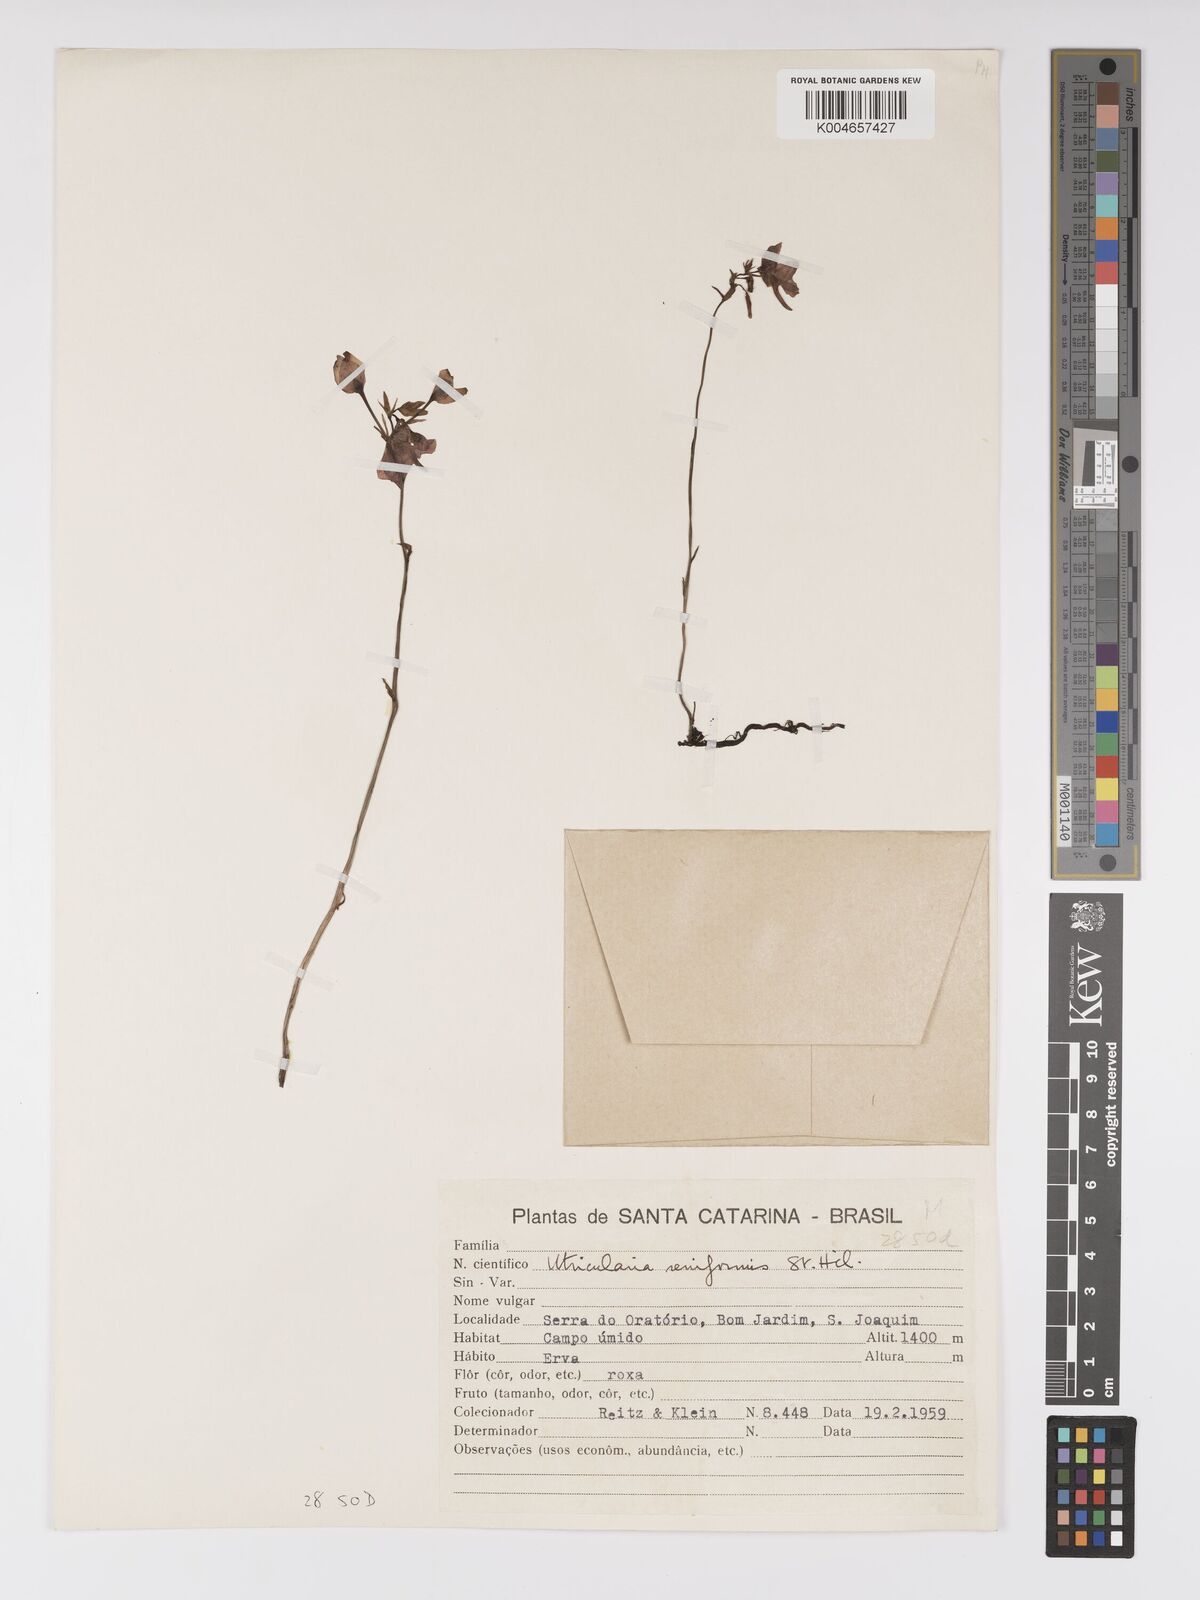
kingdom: Plantae
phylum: Tracheophyta
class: Magnoliopsida
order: Lamiales
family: Lentibulariaceae
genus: Utricularia
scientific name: Utricularia reniformis
